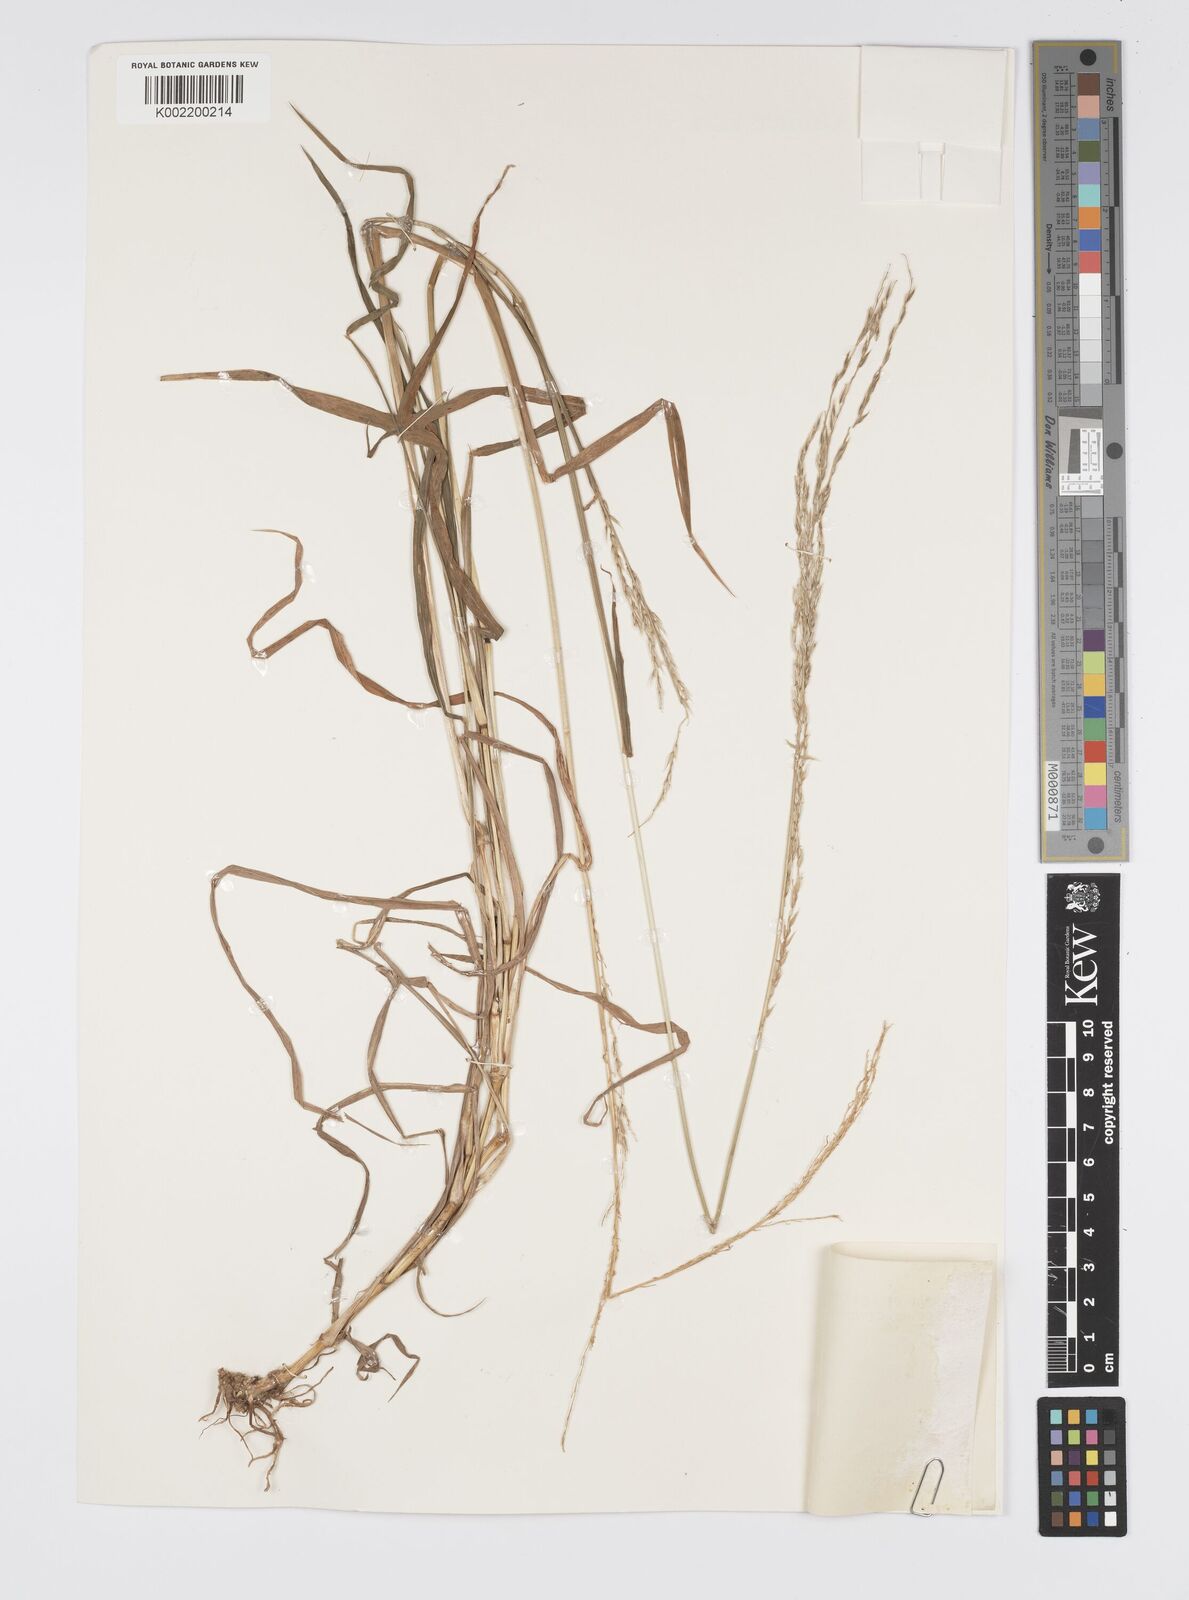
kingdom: Plantae
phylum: Tracheophyta
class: Liliopsida
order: Poales
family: Poaceae
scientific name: Poaceae
